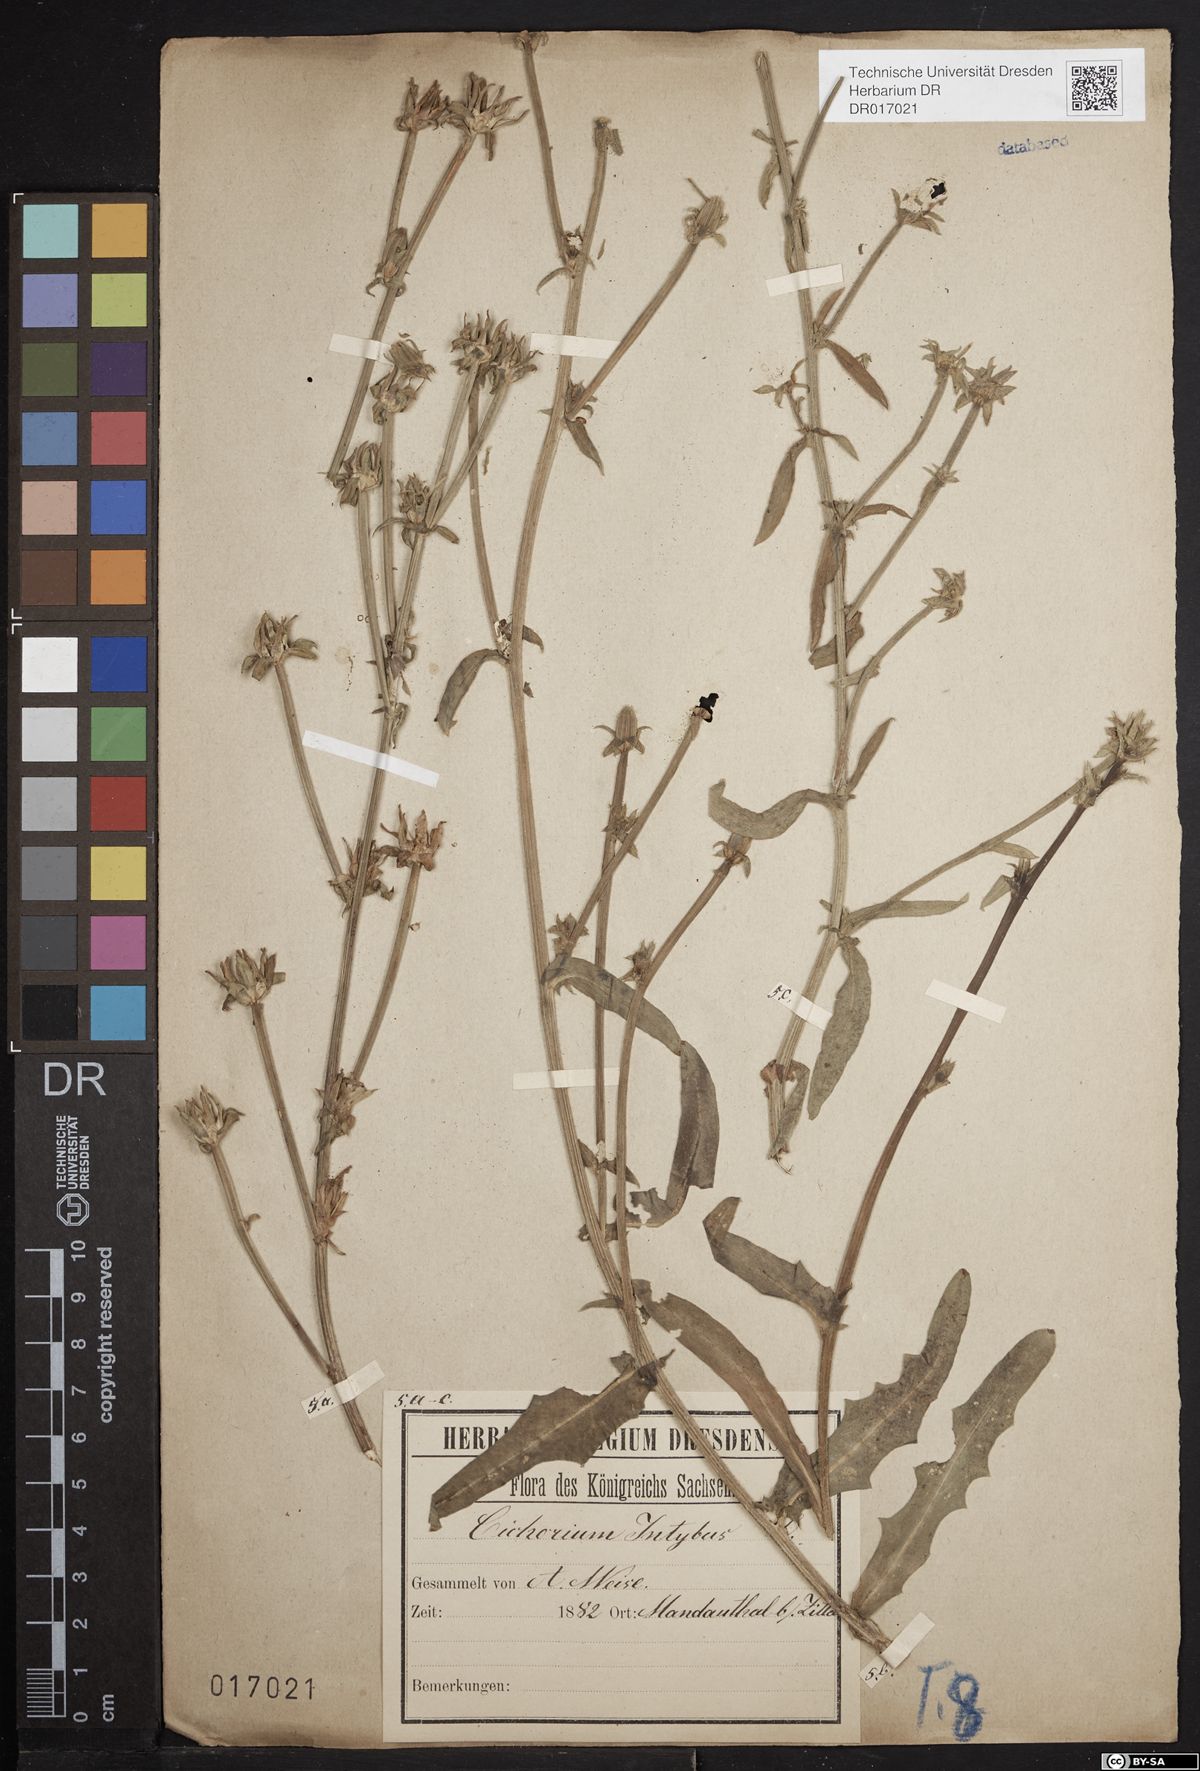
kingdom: Plantae
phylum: Tracheophyta
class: Magnoliopsida
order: Asterales
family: Asteraceae
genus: Cichorium
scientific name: Cichorium intybus
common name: Chicory
